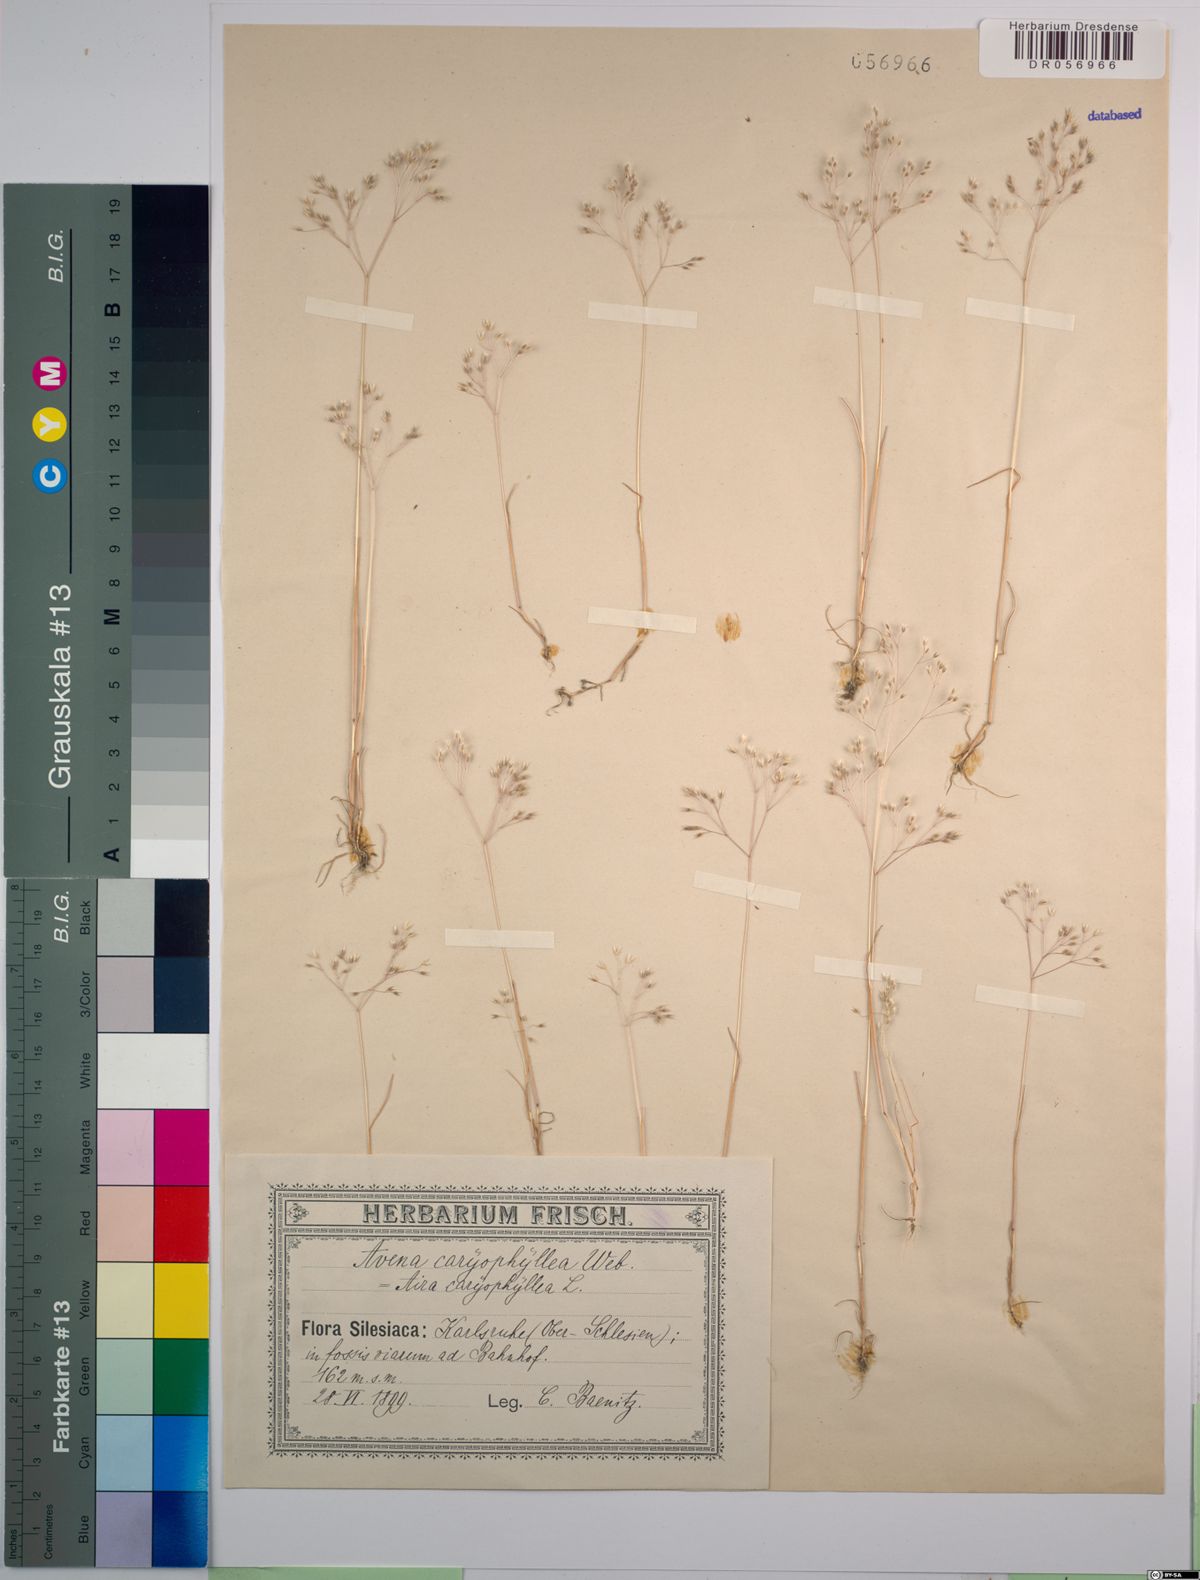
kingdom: Plantae
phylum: Tracheophyta
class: Liliopsida
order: Poales
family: Poaceae
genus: Aira
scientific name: Aira caryophyllea
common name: Silver hairgrass
